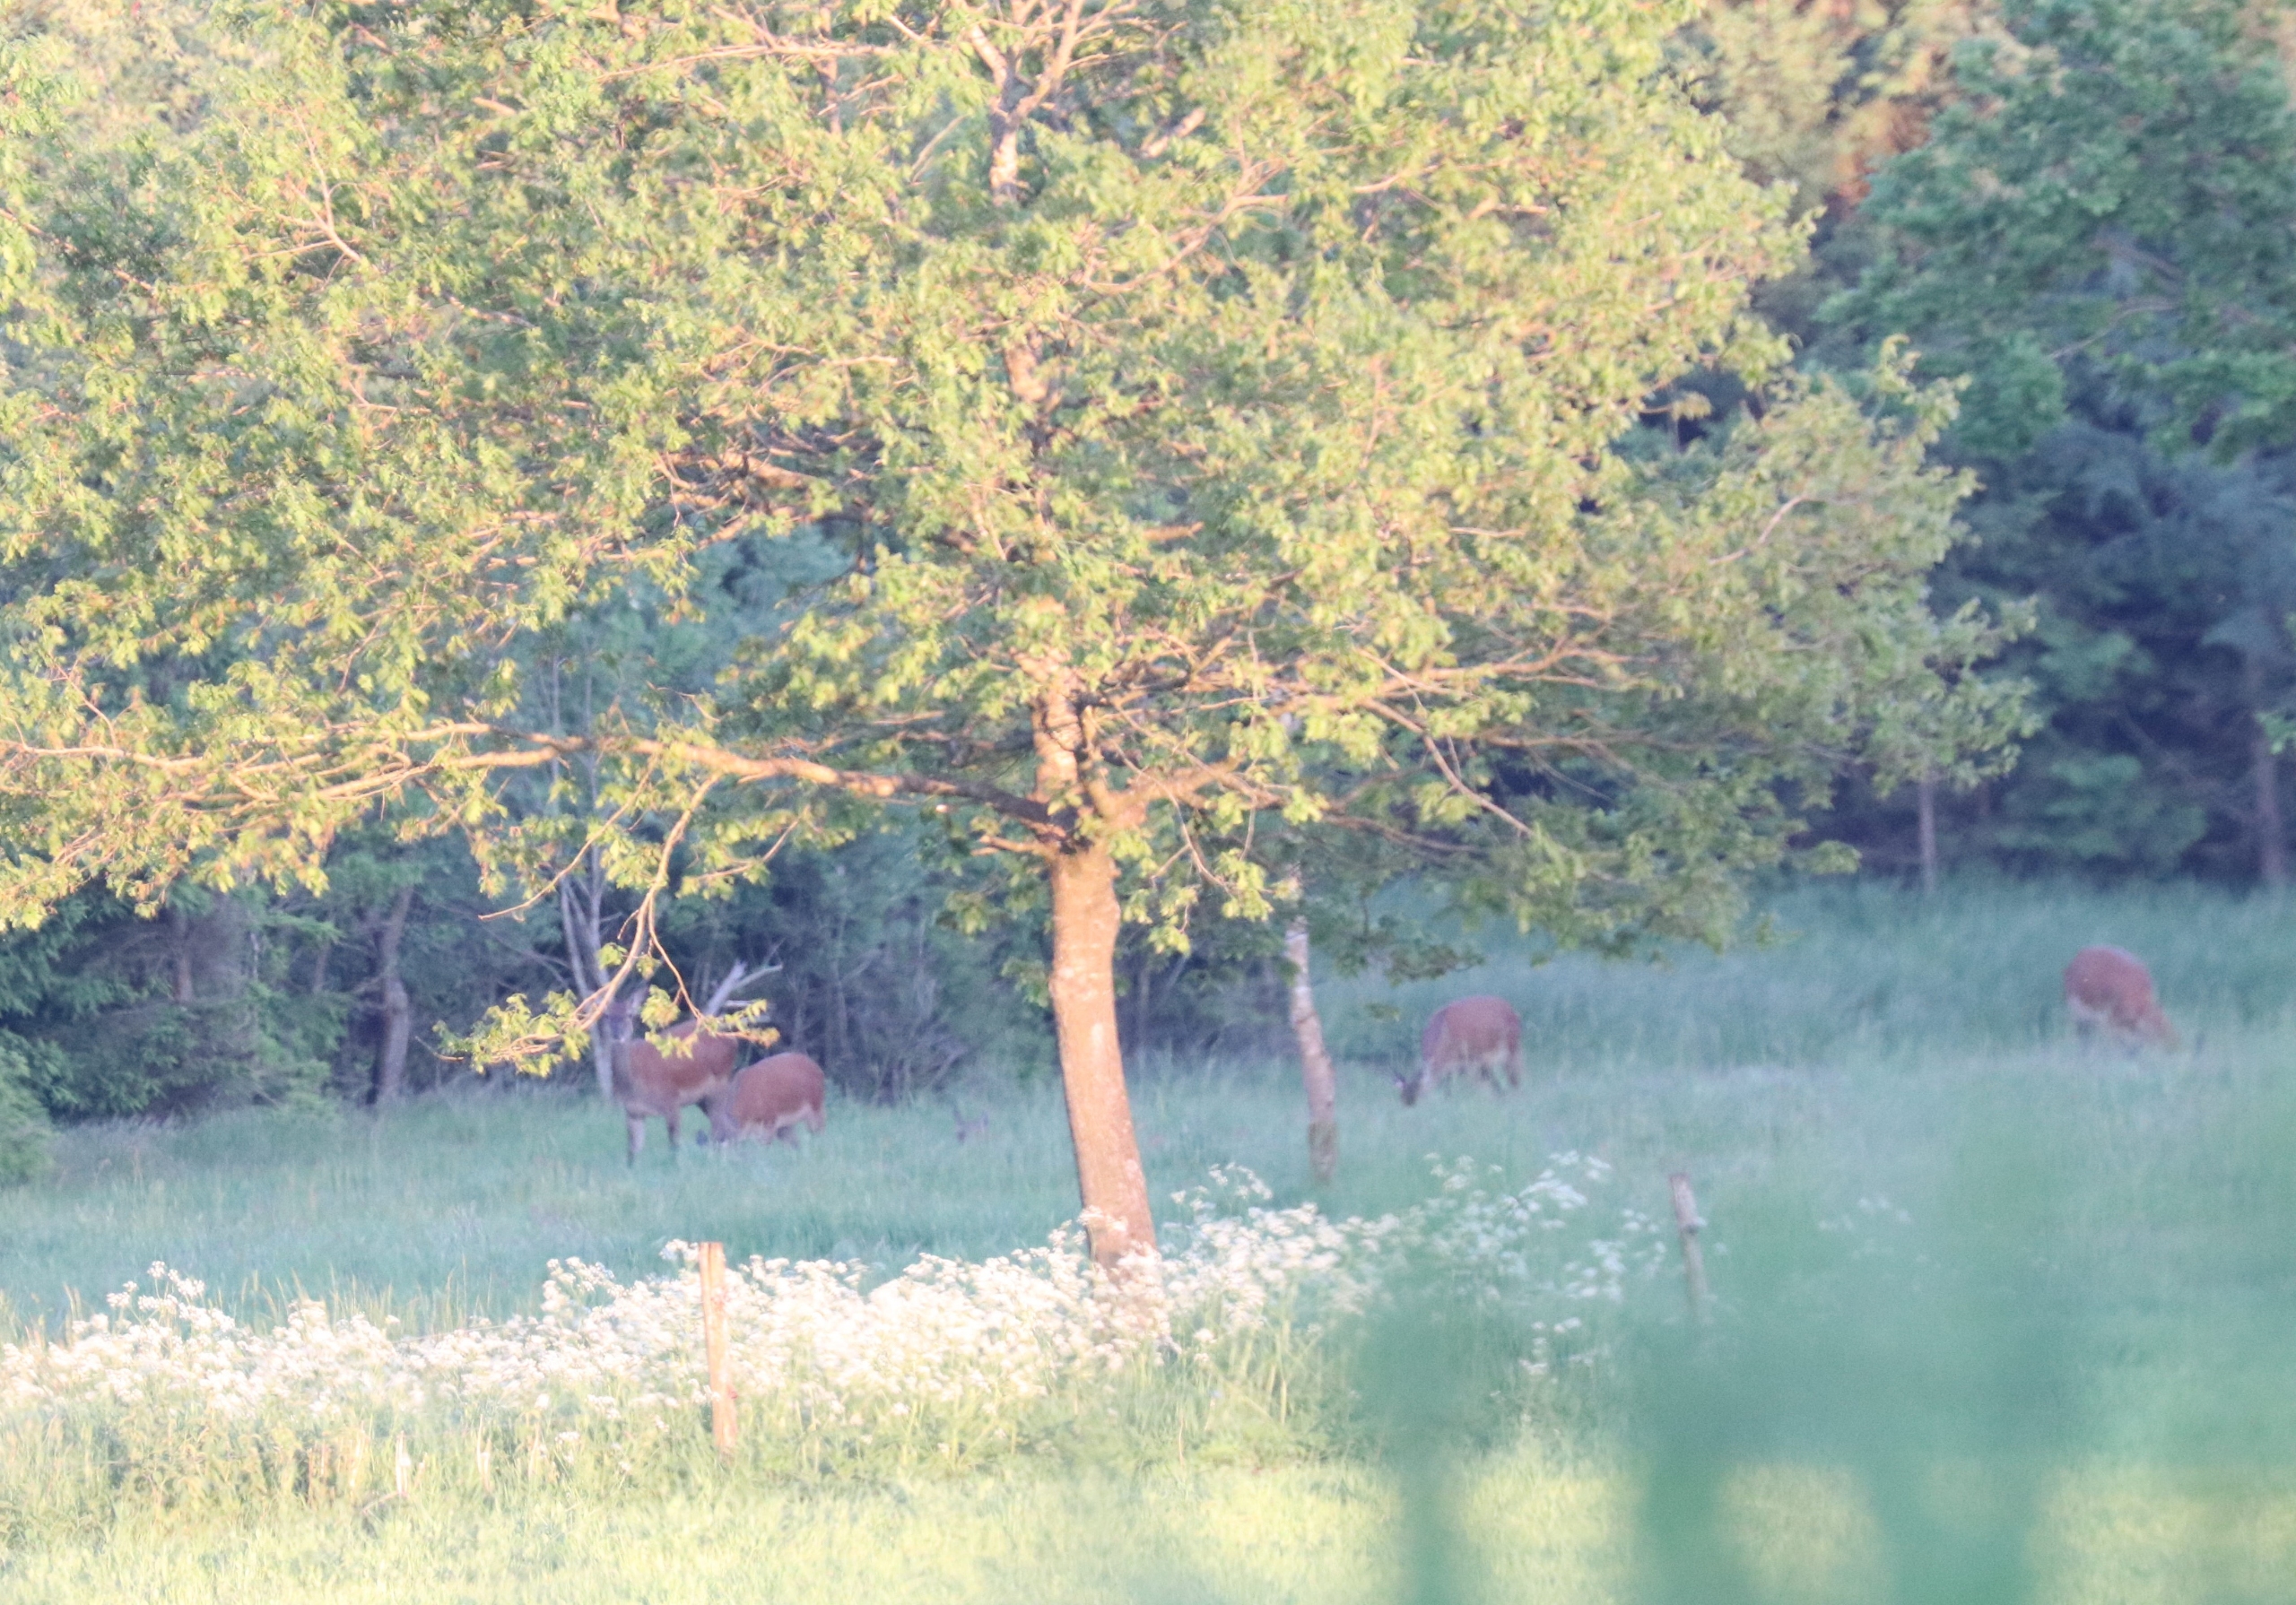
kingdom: Animalia
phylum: Chordata
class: Mammalia
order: Artiodactyla
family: Cervidae
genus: Cervus
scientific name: Cervus elaphus
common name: Krondyr
